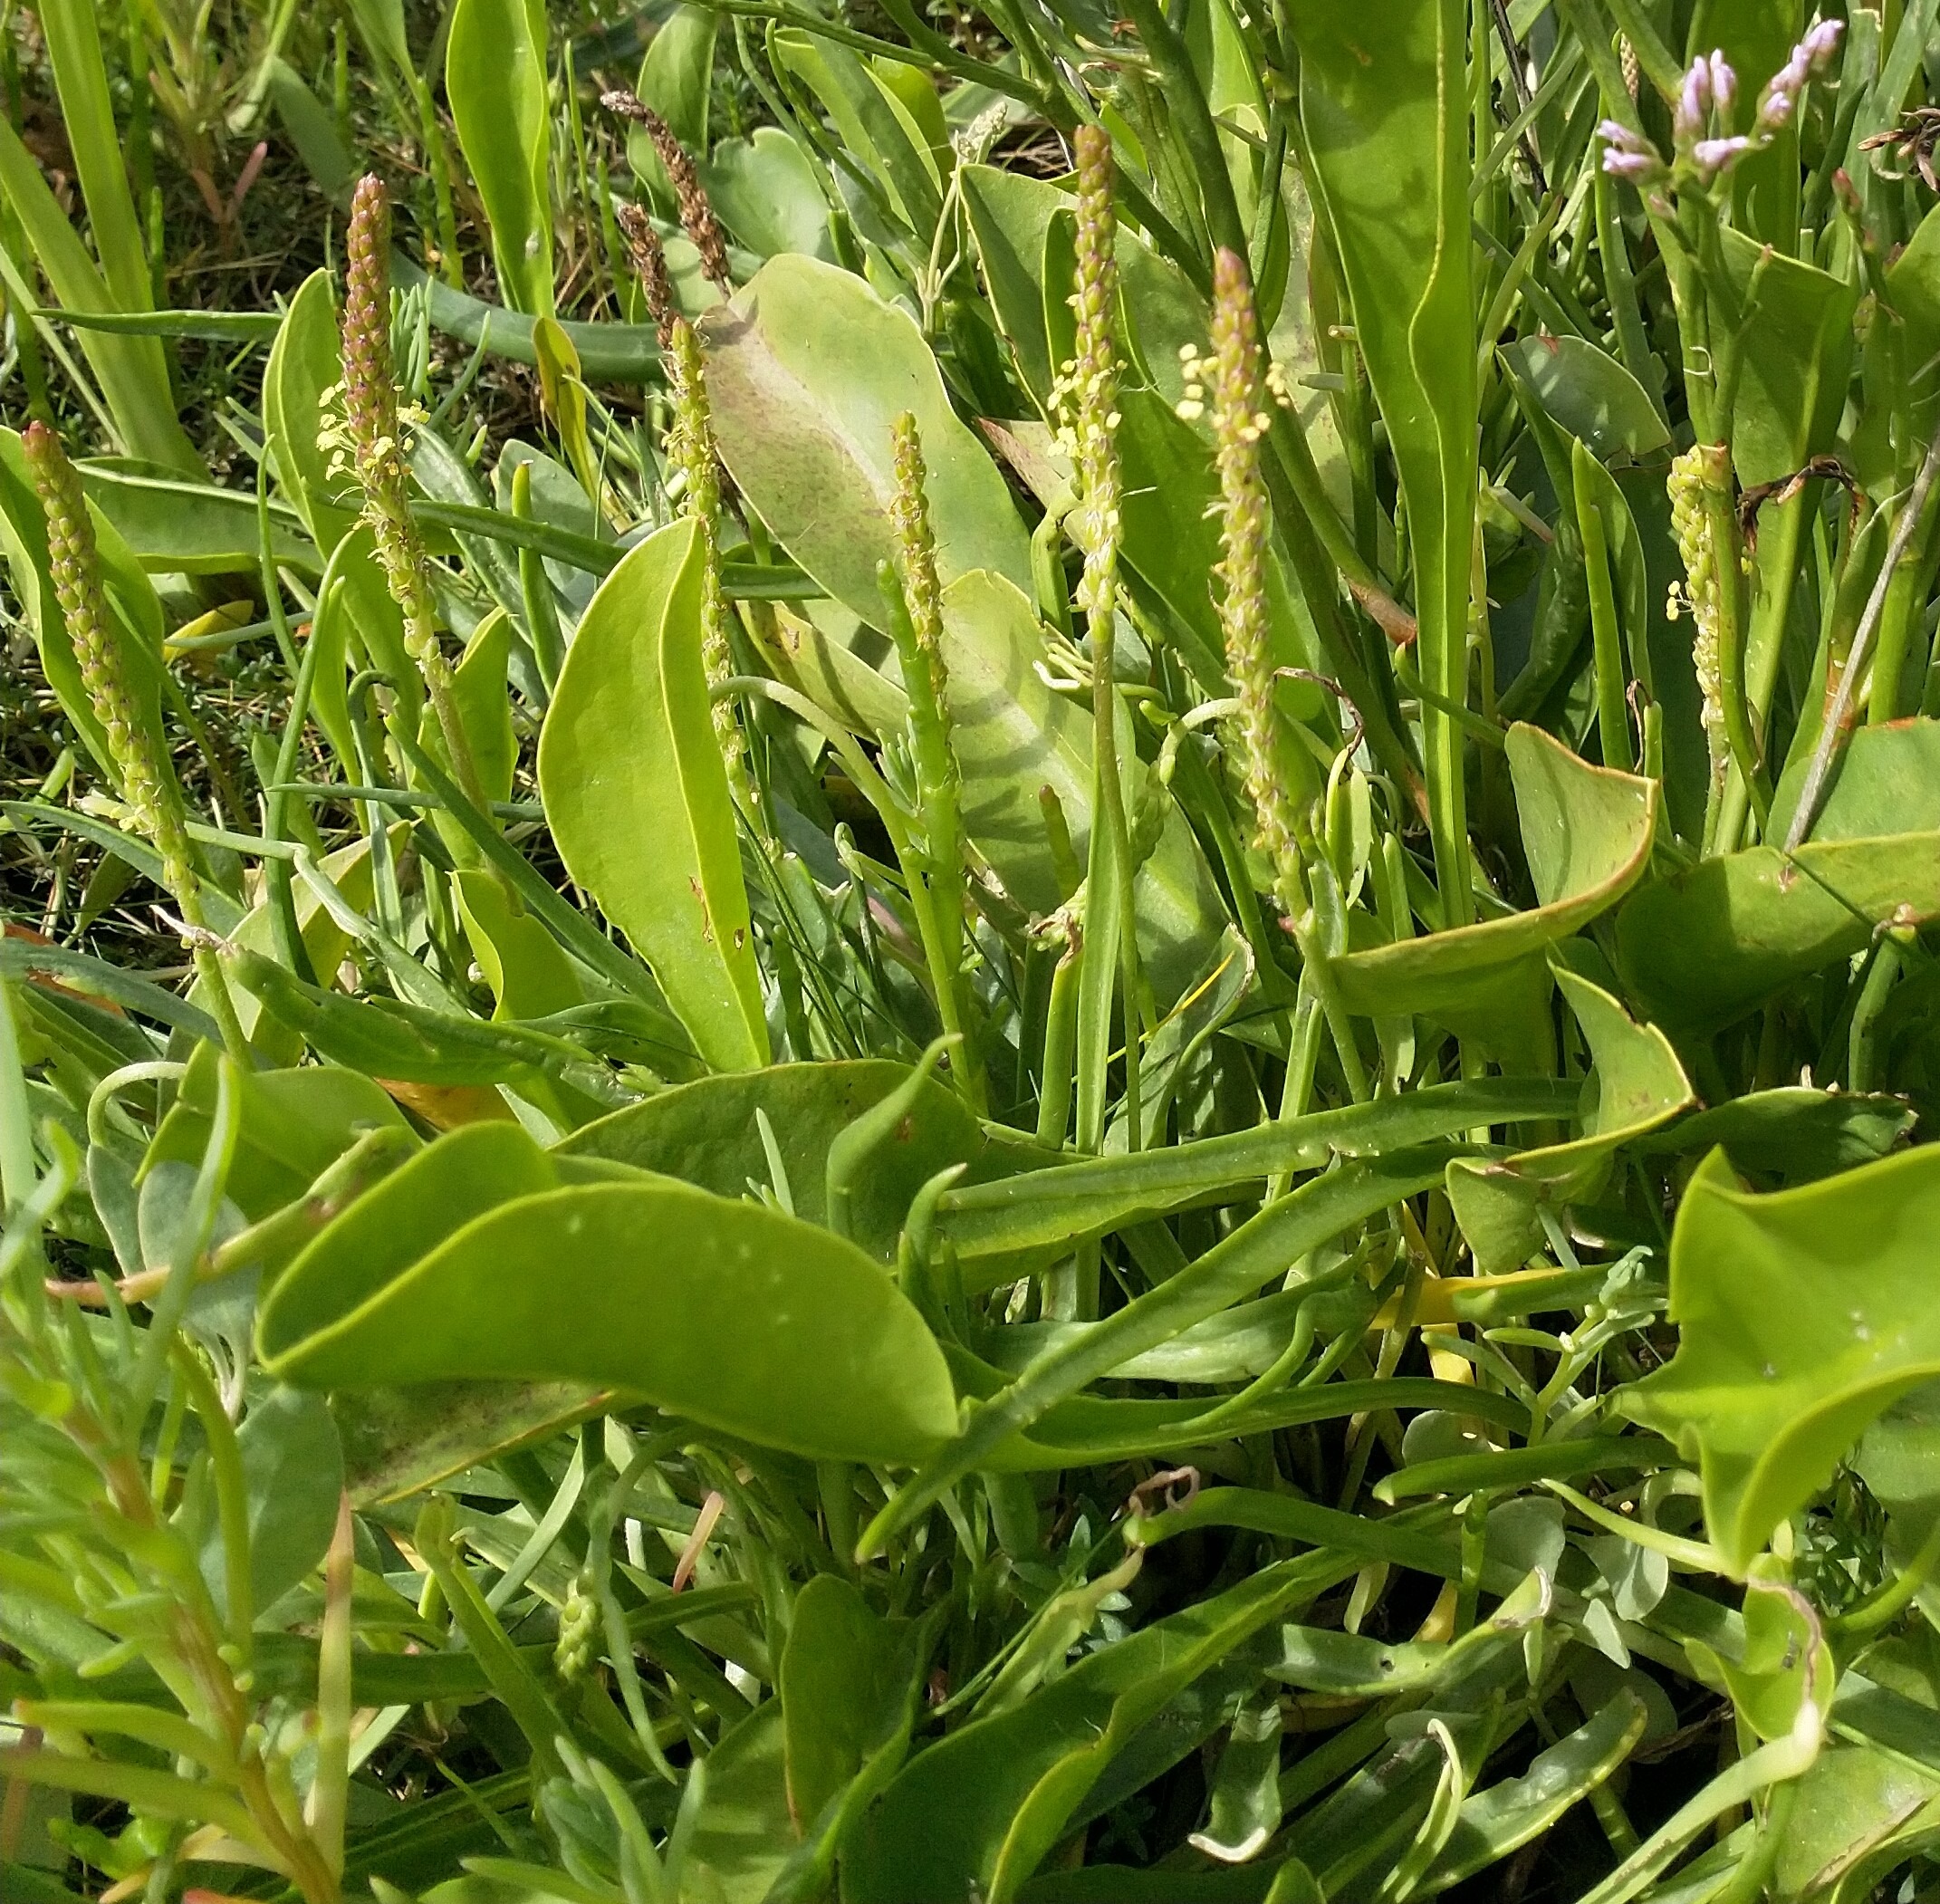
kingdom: Plantae
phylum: Tracheophyta
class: Magnoliopsida
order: Lamiales
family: Plantaginaceae
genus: Plantago
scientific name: Plantago maritima
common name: Strand-vejbred
